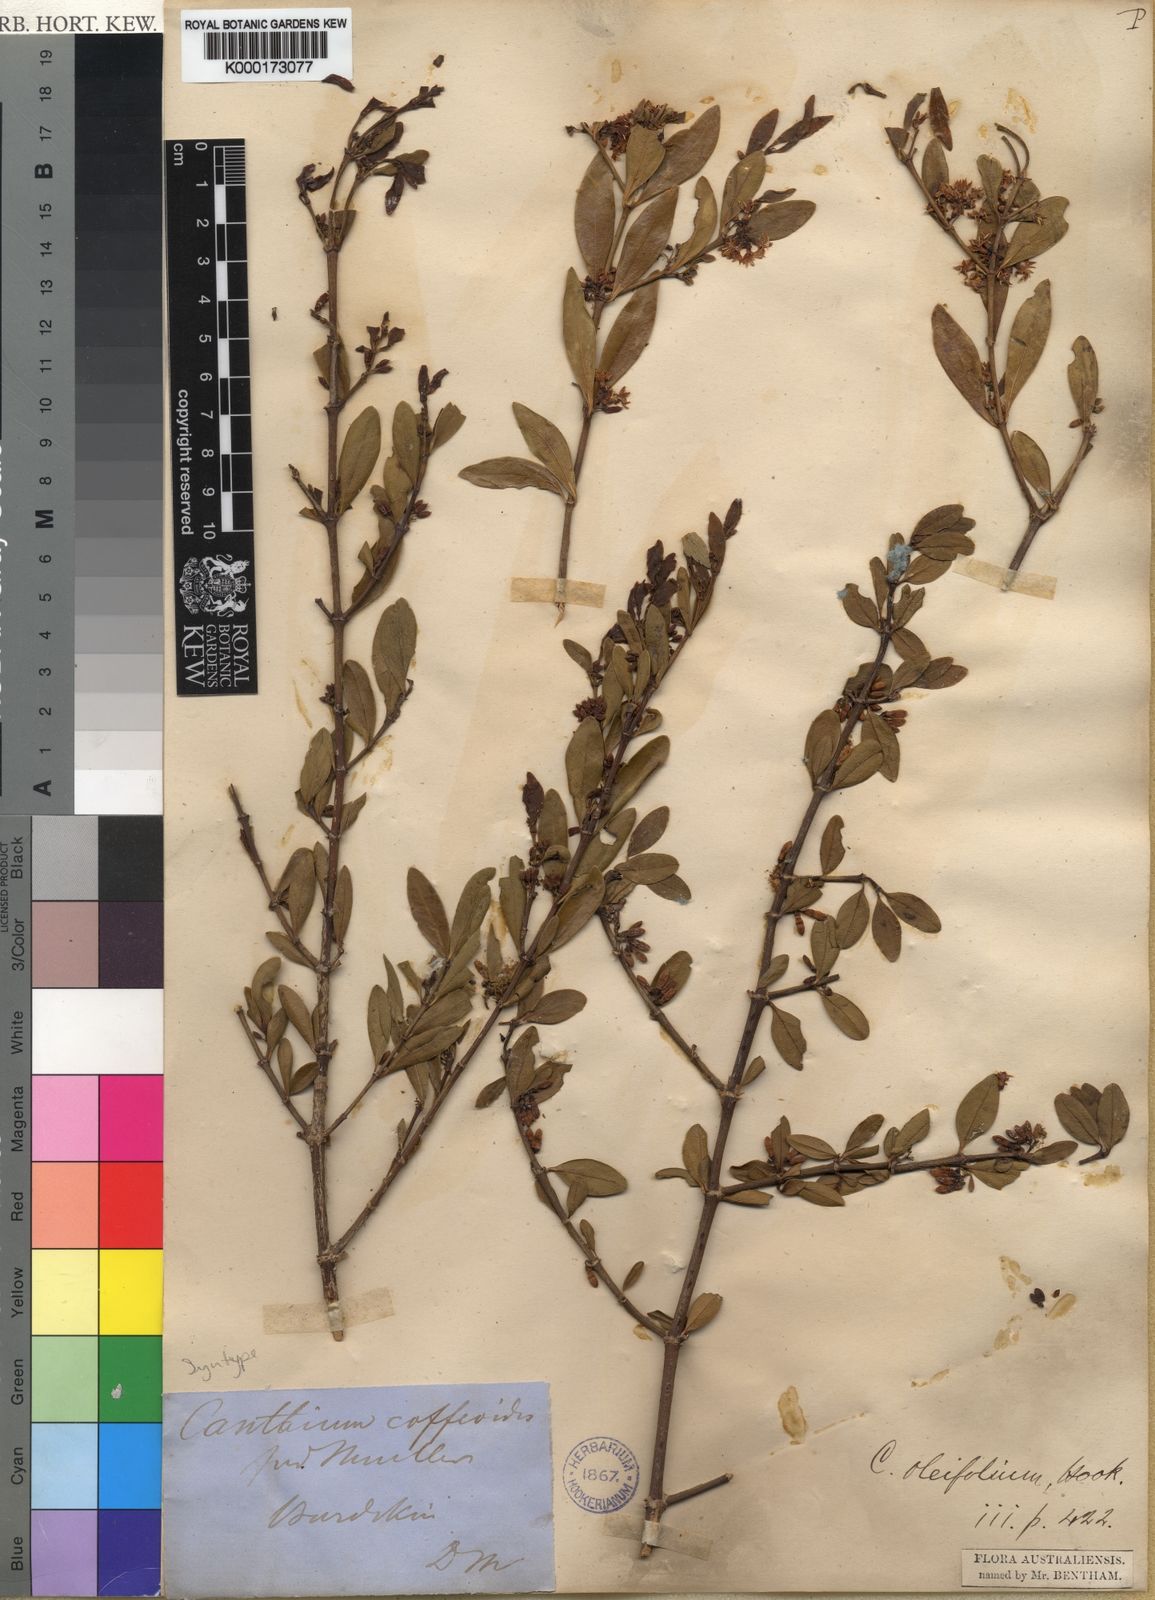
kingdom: Plantae
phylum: Tracheophyta
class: Magnoliopsida
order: Gentianales
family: Rubiaceae
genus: Psydrax
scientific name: Psydrax salignus
